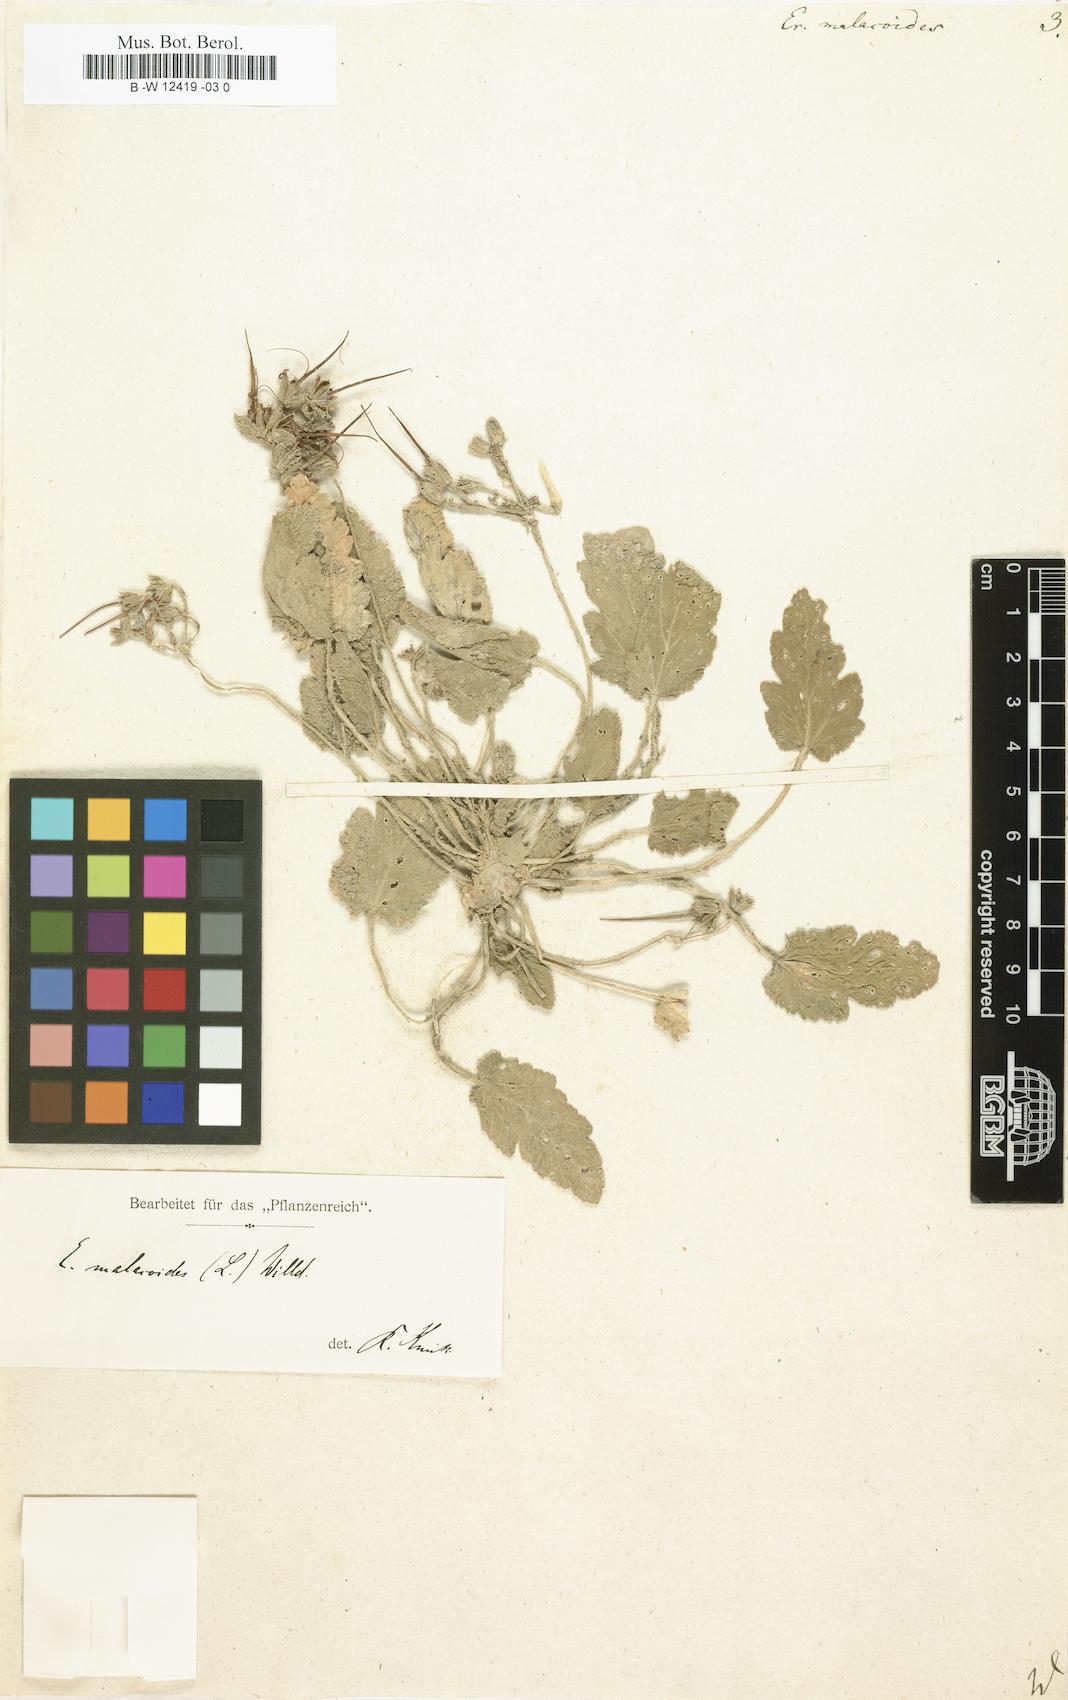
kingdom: Plantae
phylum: Tracheophyta
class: Magnoliopsida
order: Geraniales
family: Geraniaceae
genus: Erodium
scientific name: Erodium malacoides
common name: Soft stork's-bill
